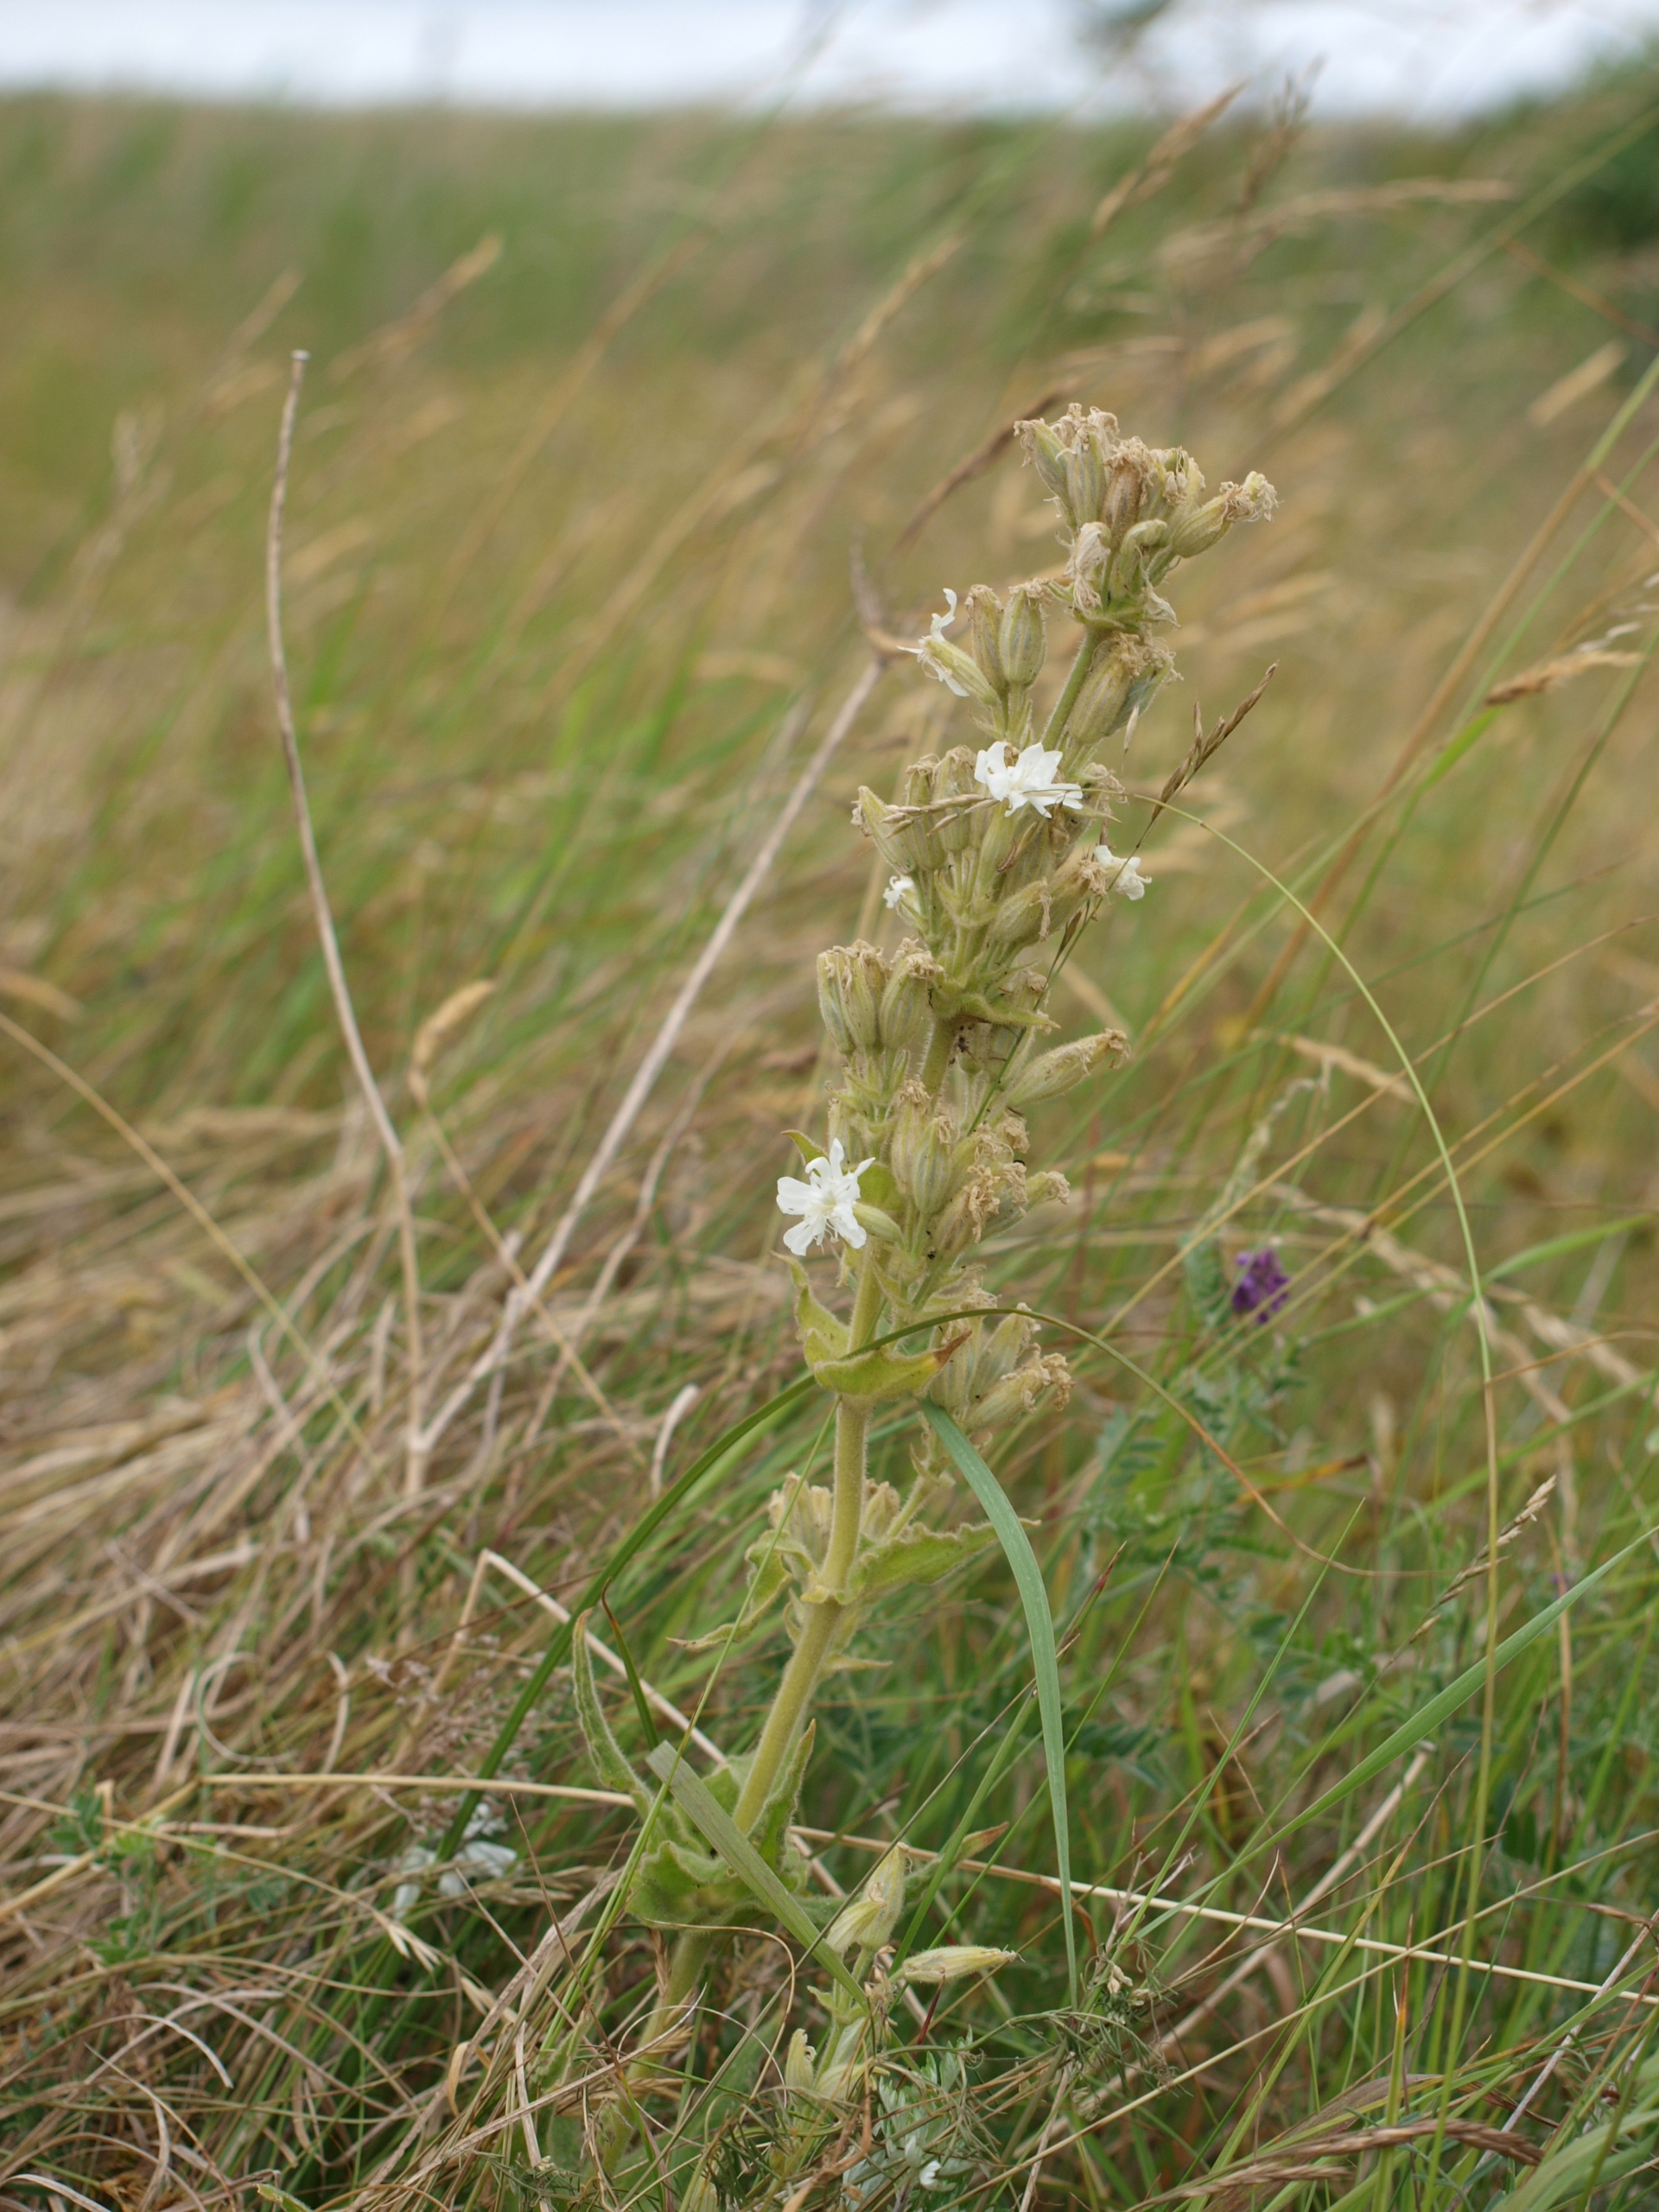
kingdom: Plantae
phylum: Tracheophyta
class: Magnoliopsida
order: Caryophyllales
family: Caryophyllaceae
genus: Silene
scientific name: Silene viscosa
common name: Klæbrig limurt
